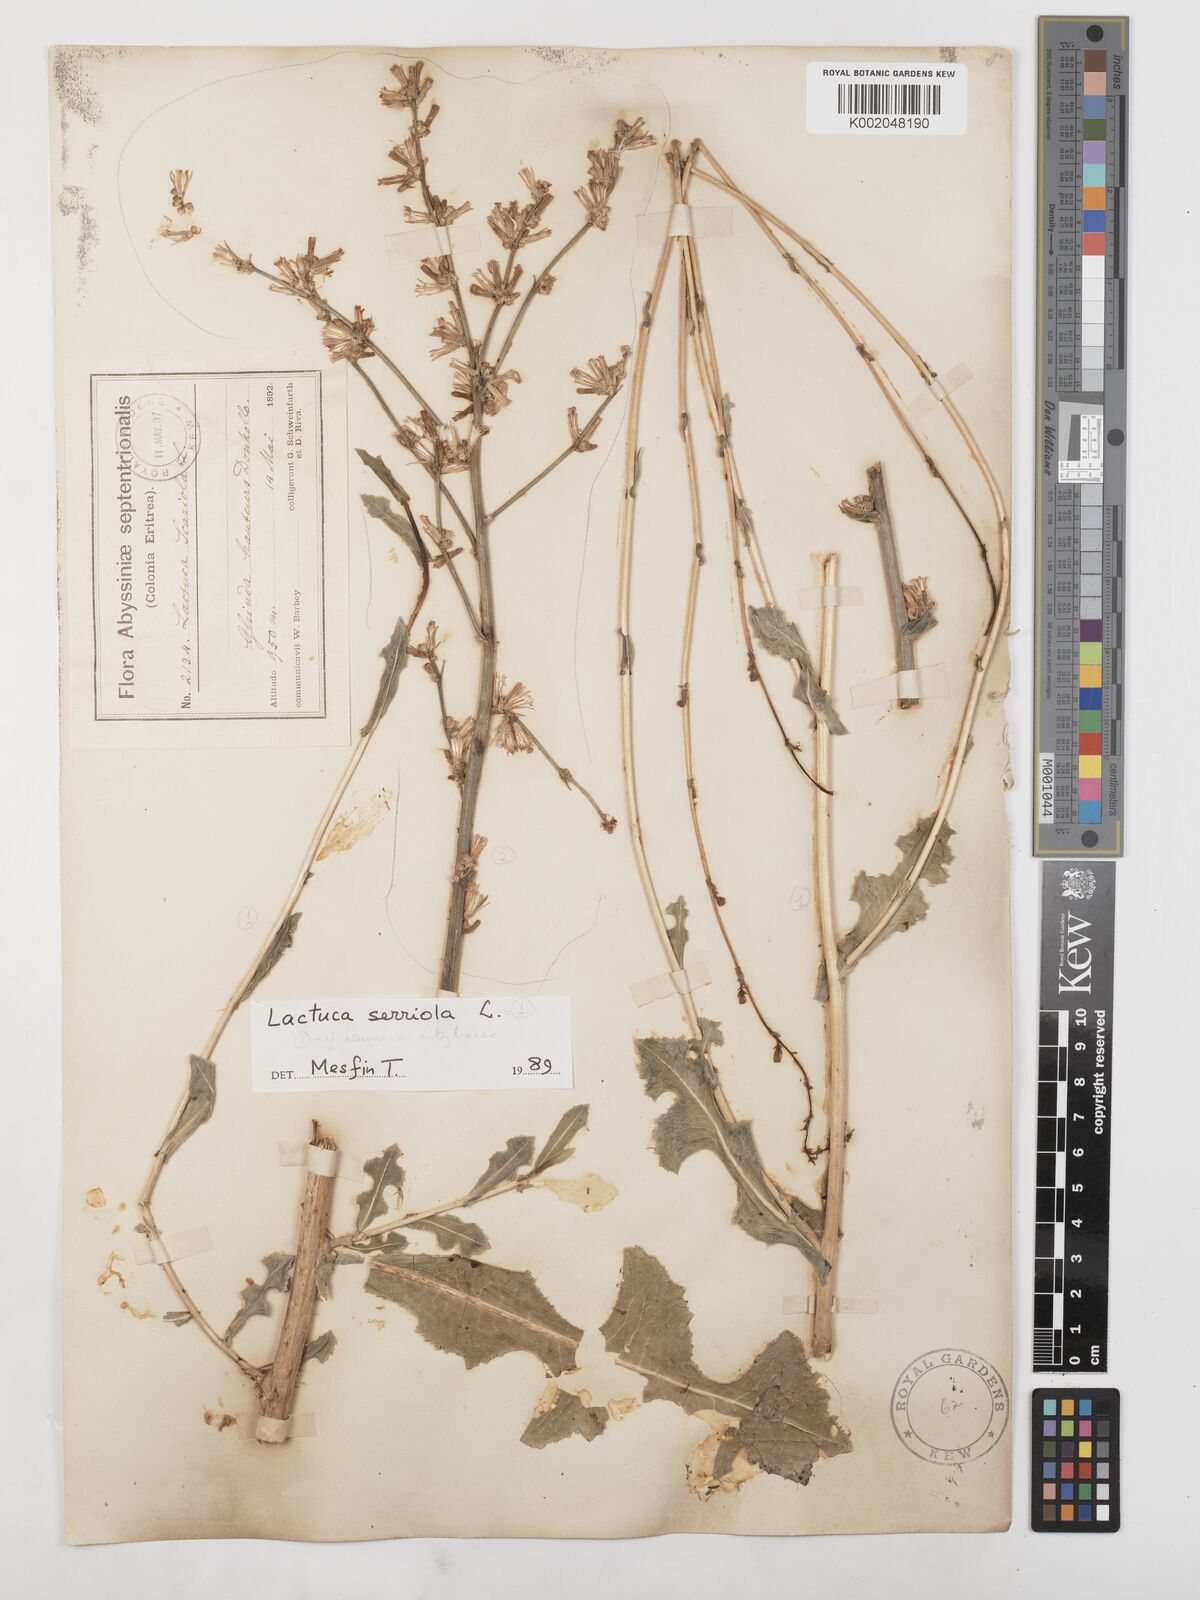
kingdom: Plantae
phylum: Tracheophyta
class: Magnoliopsida
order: Asterales
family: Asteraceae
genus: Lactuca
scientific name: Lactuca serriola
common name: Prickly lettuce
